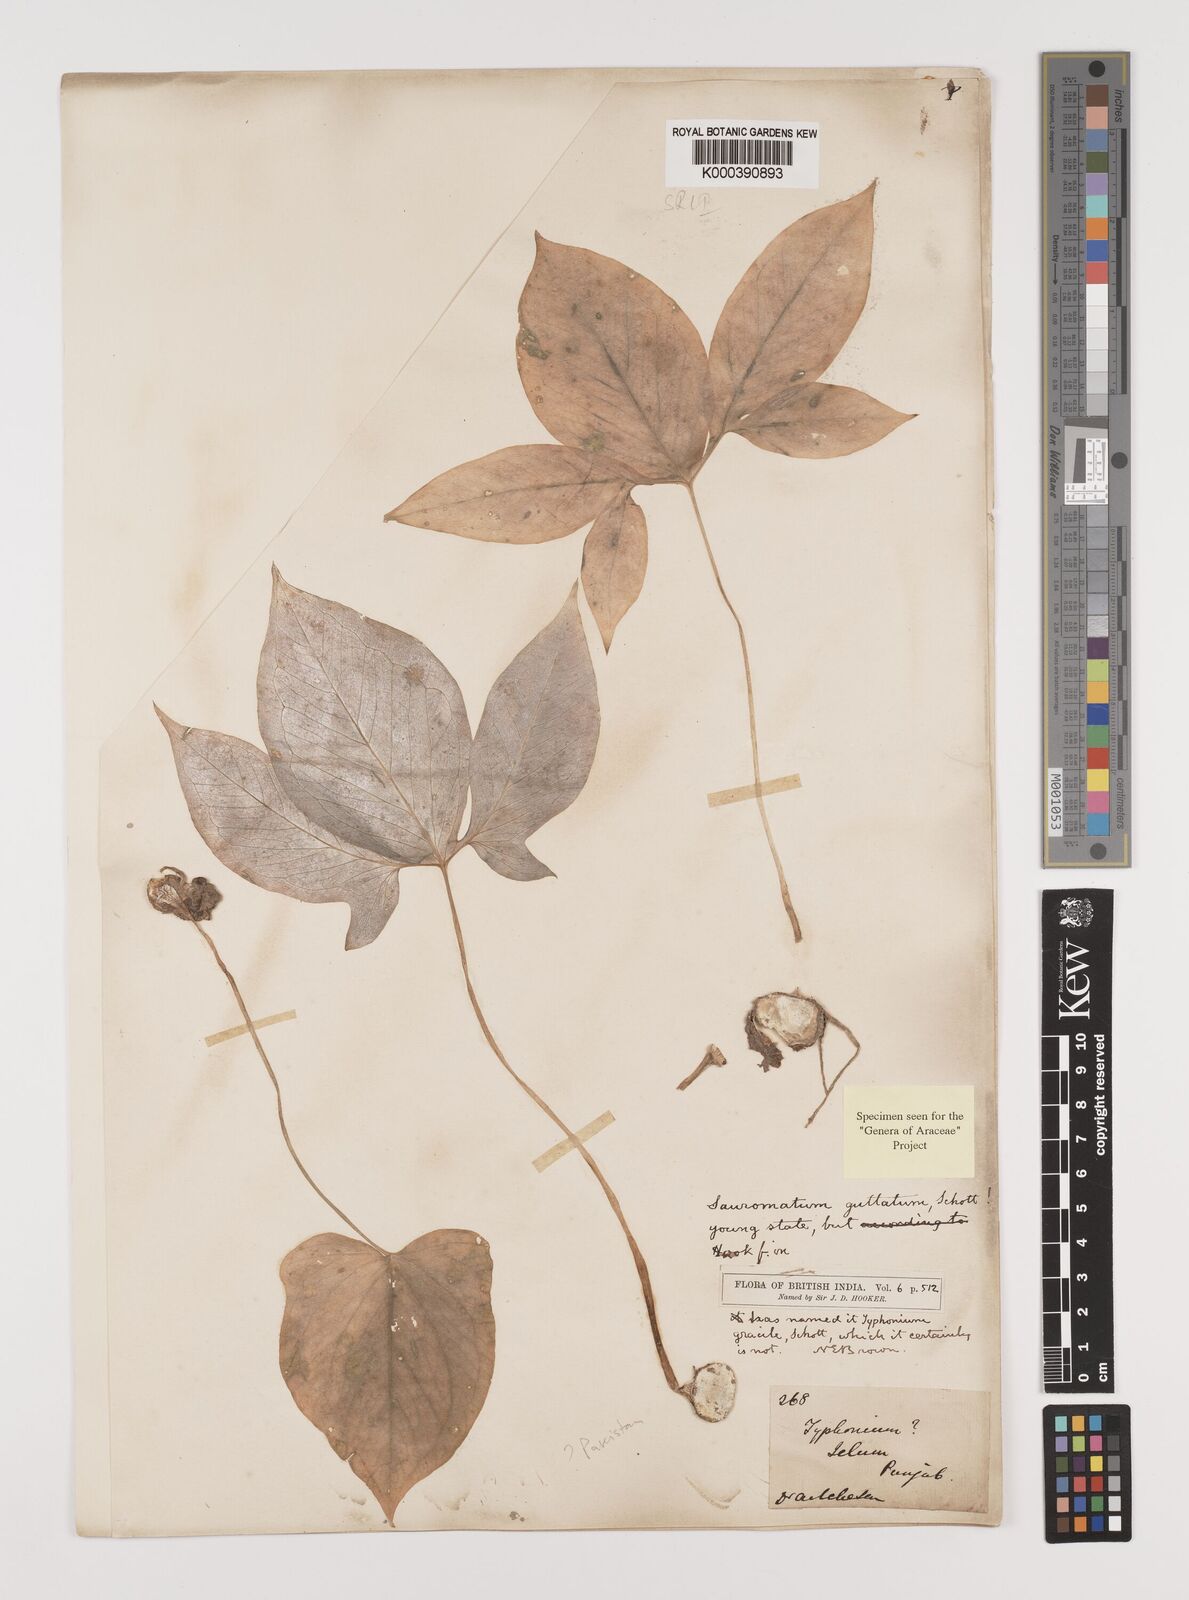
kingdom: Plantae
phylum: Tracheophyta
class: Liliopsida
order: Alismatales
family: Araceae
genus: Sauromatum
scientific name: Sauromatum venosum
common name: Voodoo lily
